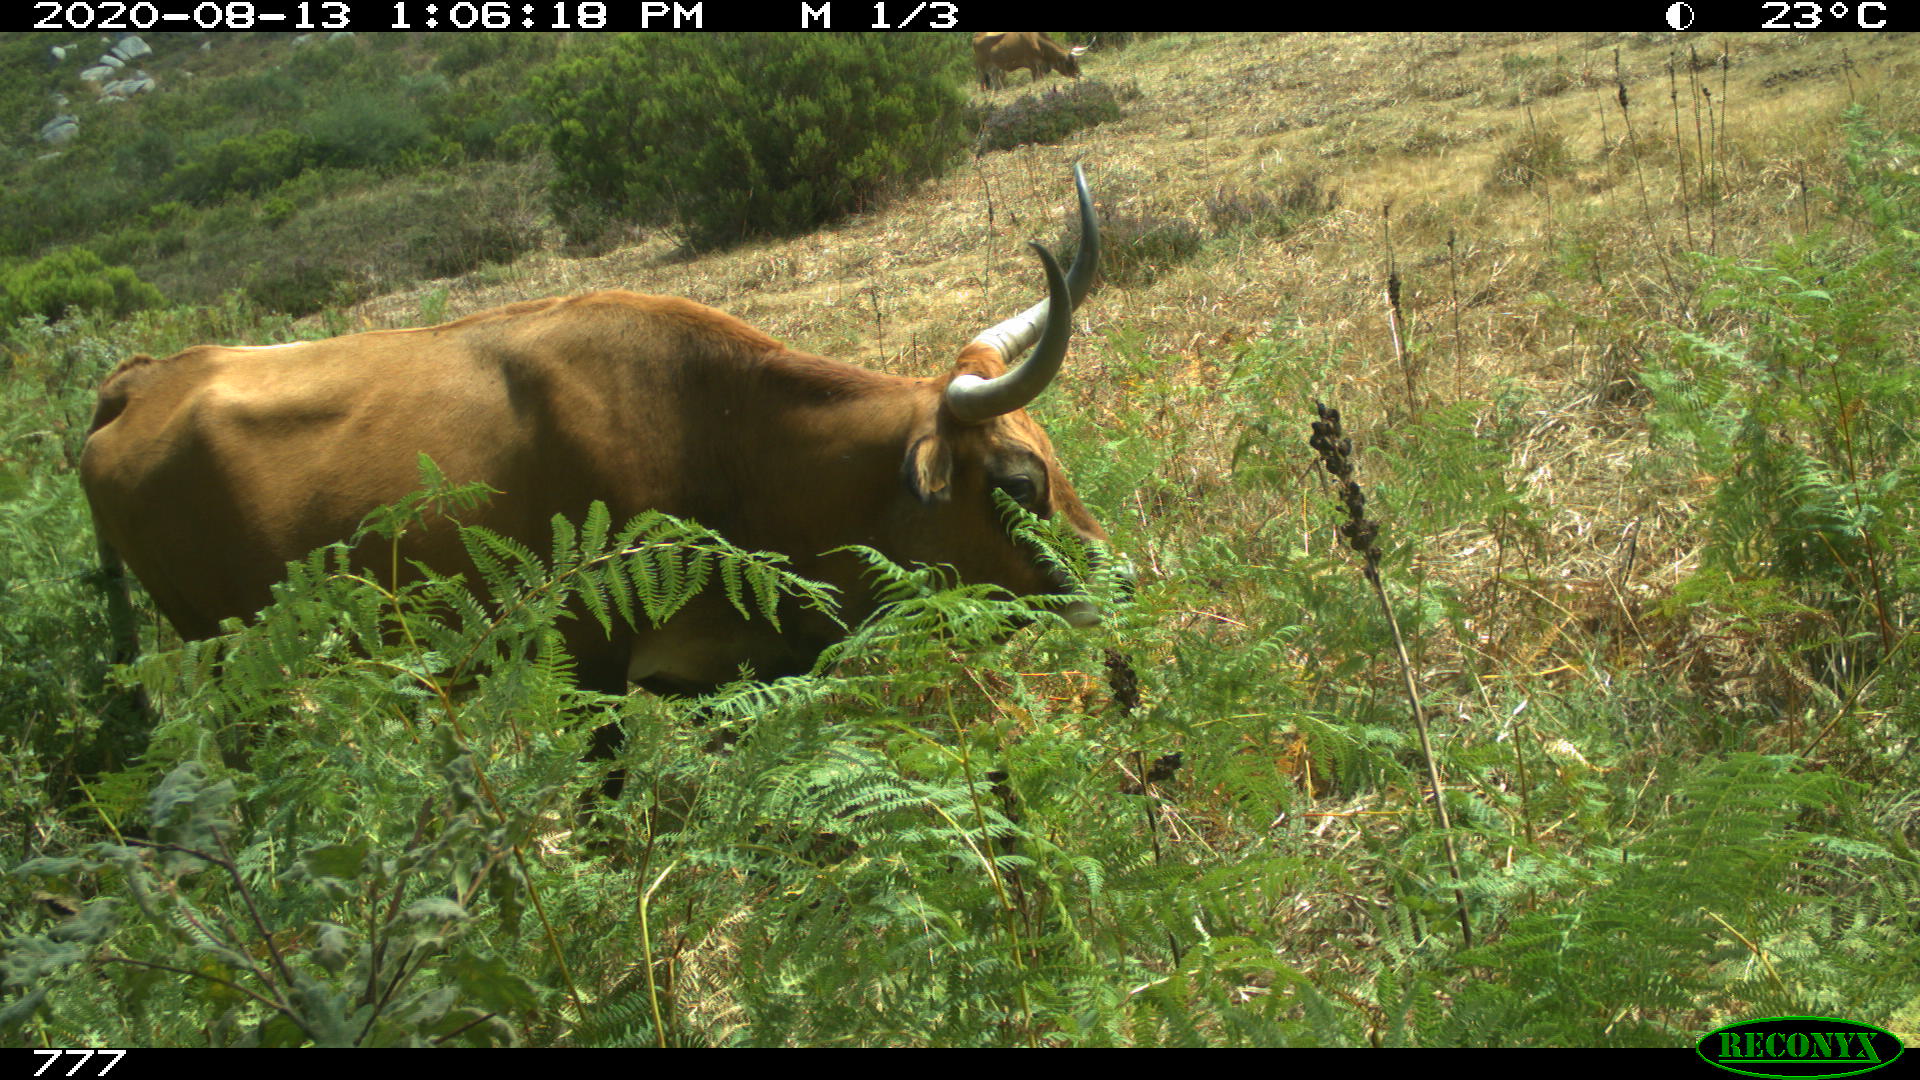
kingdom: Animalia
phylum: Chordata
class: Mammalia
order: Artiodactyla
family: Bovidae
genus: Bos
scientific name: Bos taurus
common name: Domesticated cattle
